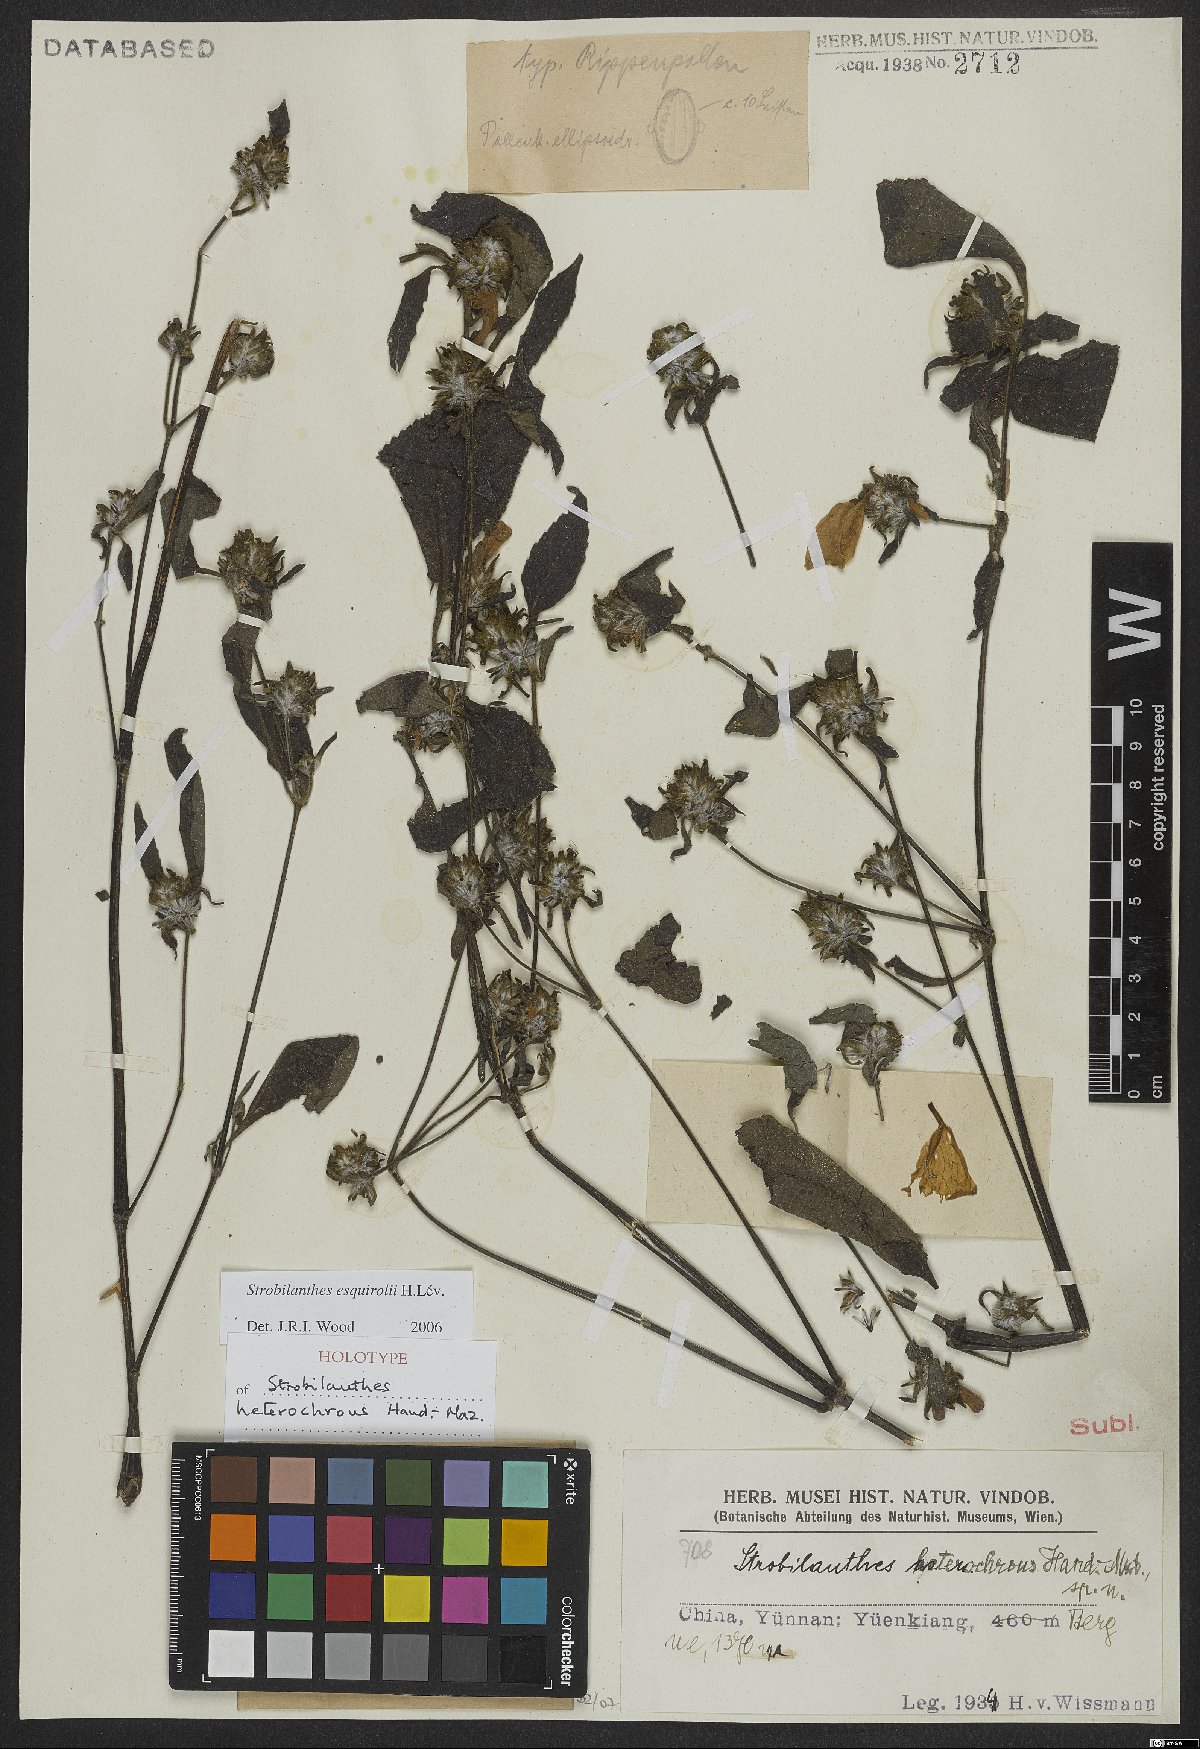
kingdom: Plantae
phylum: Tracheophyta
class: Magnoliopsida
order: Lamiales
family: Acanthaceae
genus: Strobilanthes
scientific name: Strobilanthes heterochroa
